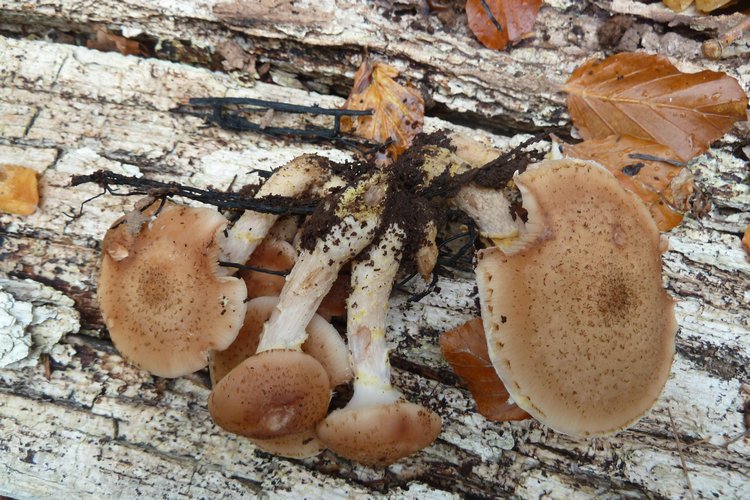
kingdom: Fungi
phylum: Basidiomycota
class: Agaricomycetes
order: Agaricales
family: Physalacriaceae
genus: Armillaria
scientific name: Armillaria lutea
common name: køllestokket honningsvamp
